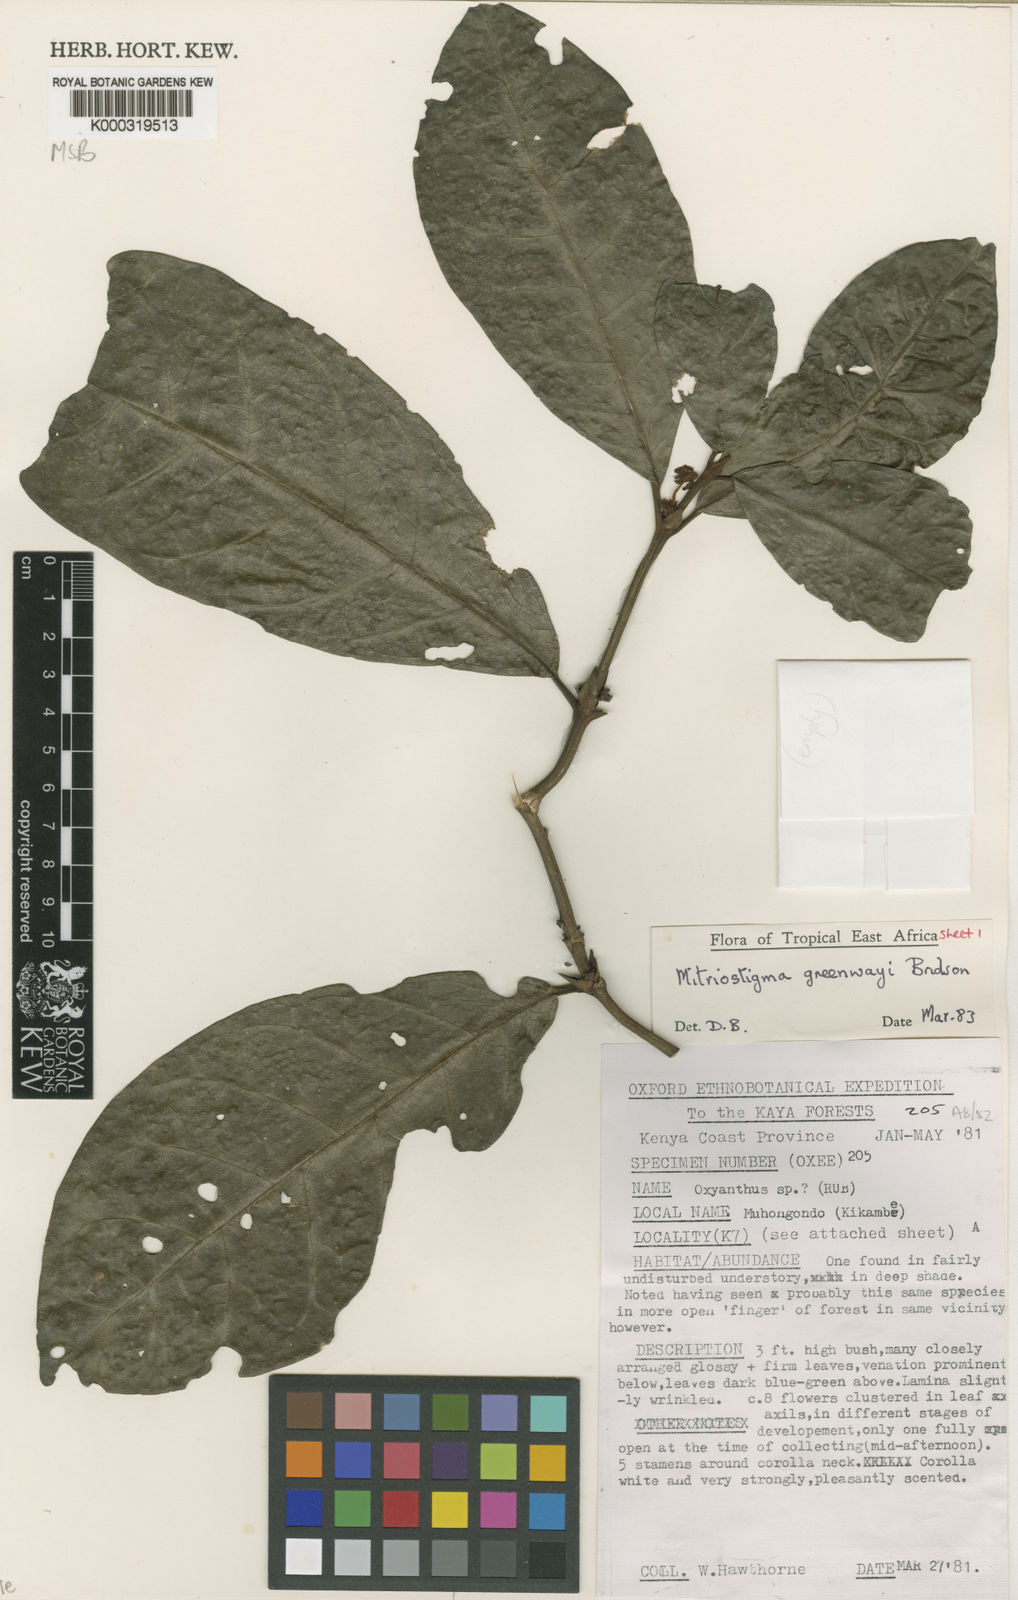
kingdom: Plantae
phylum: Tracheophyta
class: Magnoliopsida
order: Gentianales
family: Rubiaceae
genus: Mitriostigma
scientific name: Mitriostigma greenwayi
